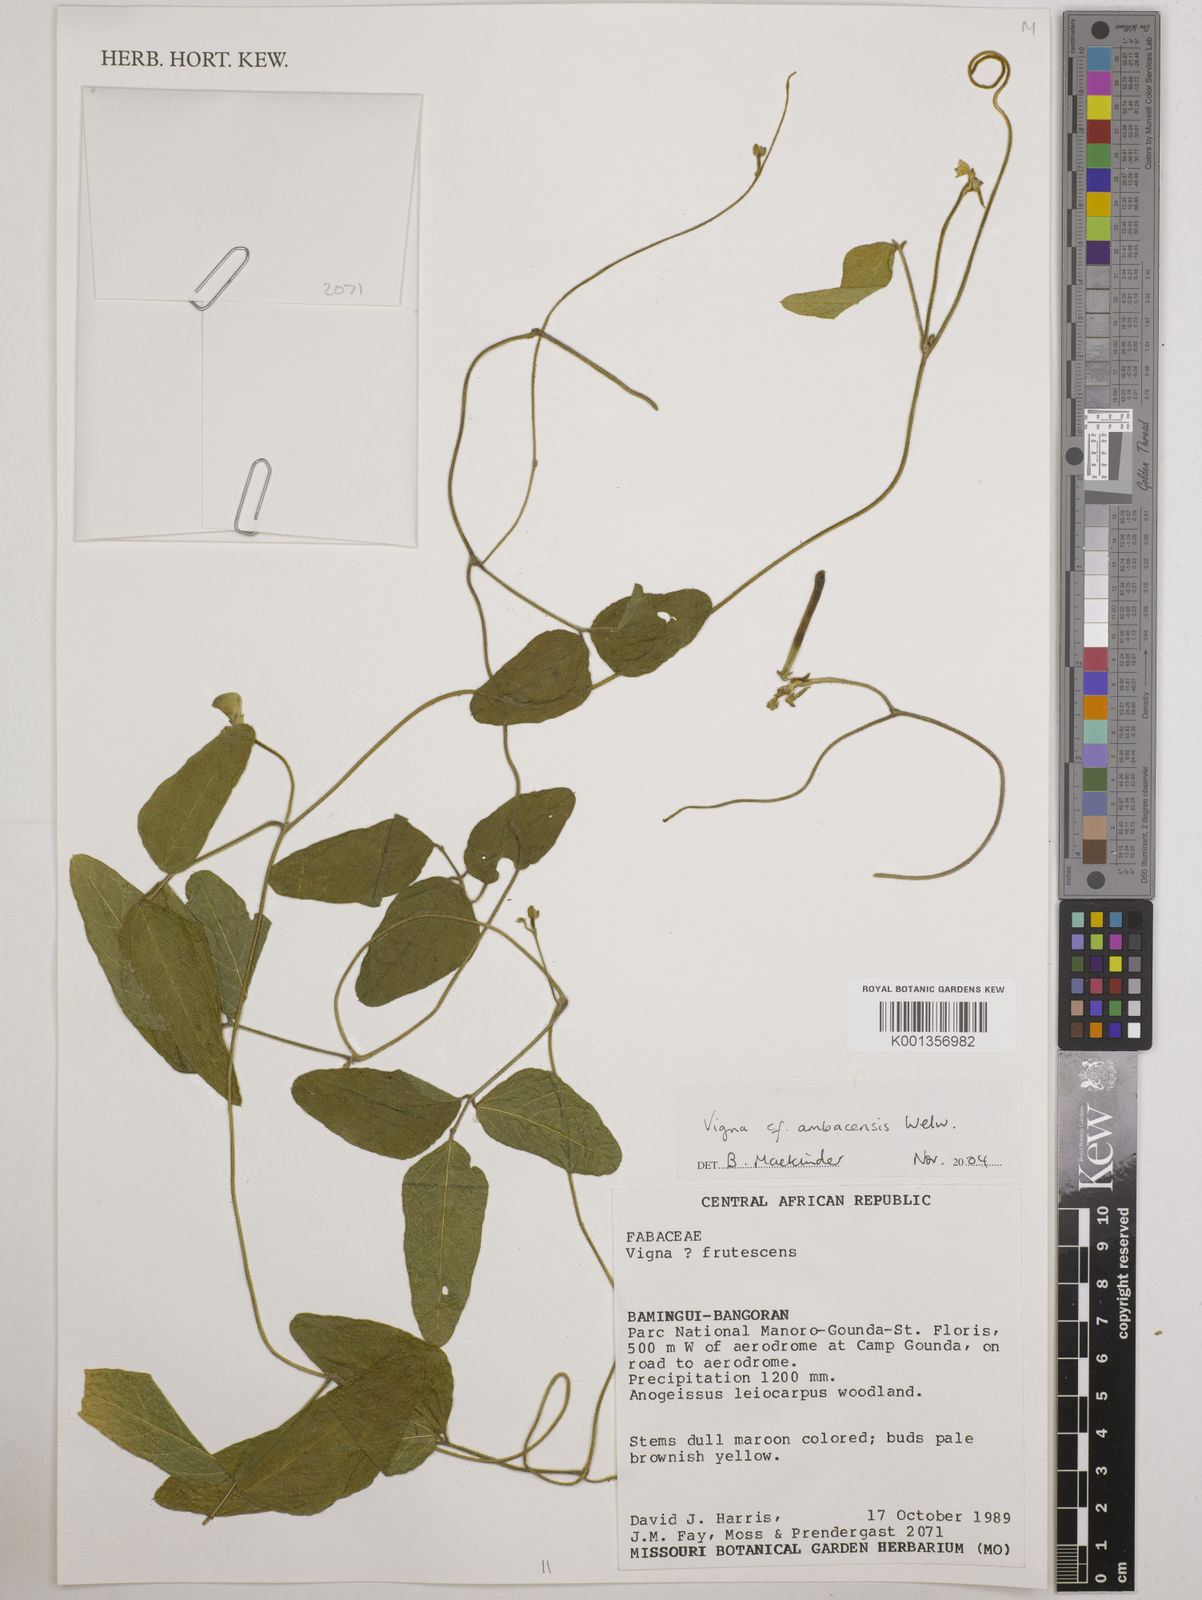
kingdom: Plantae
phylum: Tracheophyta
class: Magnoliopsida
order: Fabales
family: Fabaceae
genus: Vigna
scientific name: Vigna ambacensis
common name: Tsarkiyan zomo
